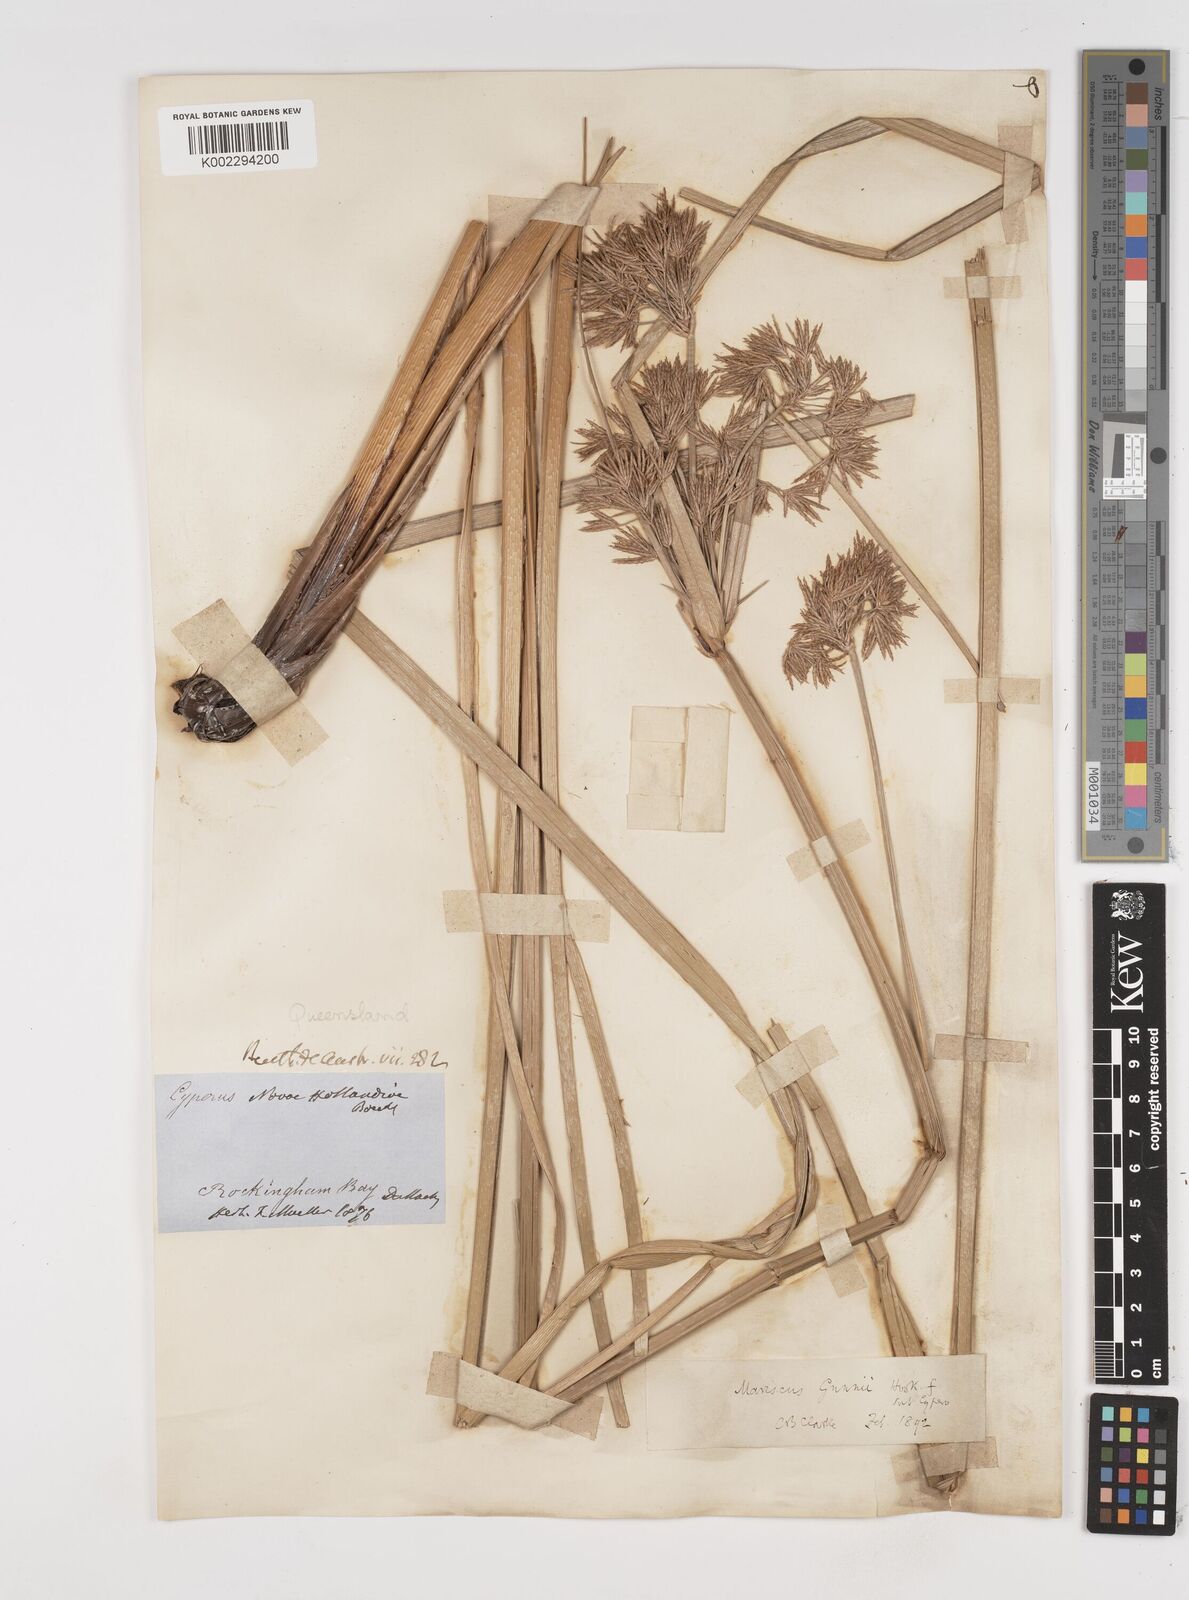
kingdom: Plantae
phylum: Tracheophyta
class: Liliopsida
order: Poales
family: Cyperaceae
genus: Cyperus
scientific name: Cyperus gunnii
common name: Flecked flat-sedge
